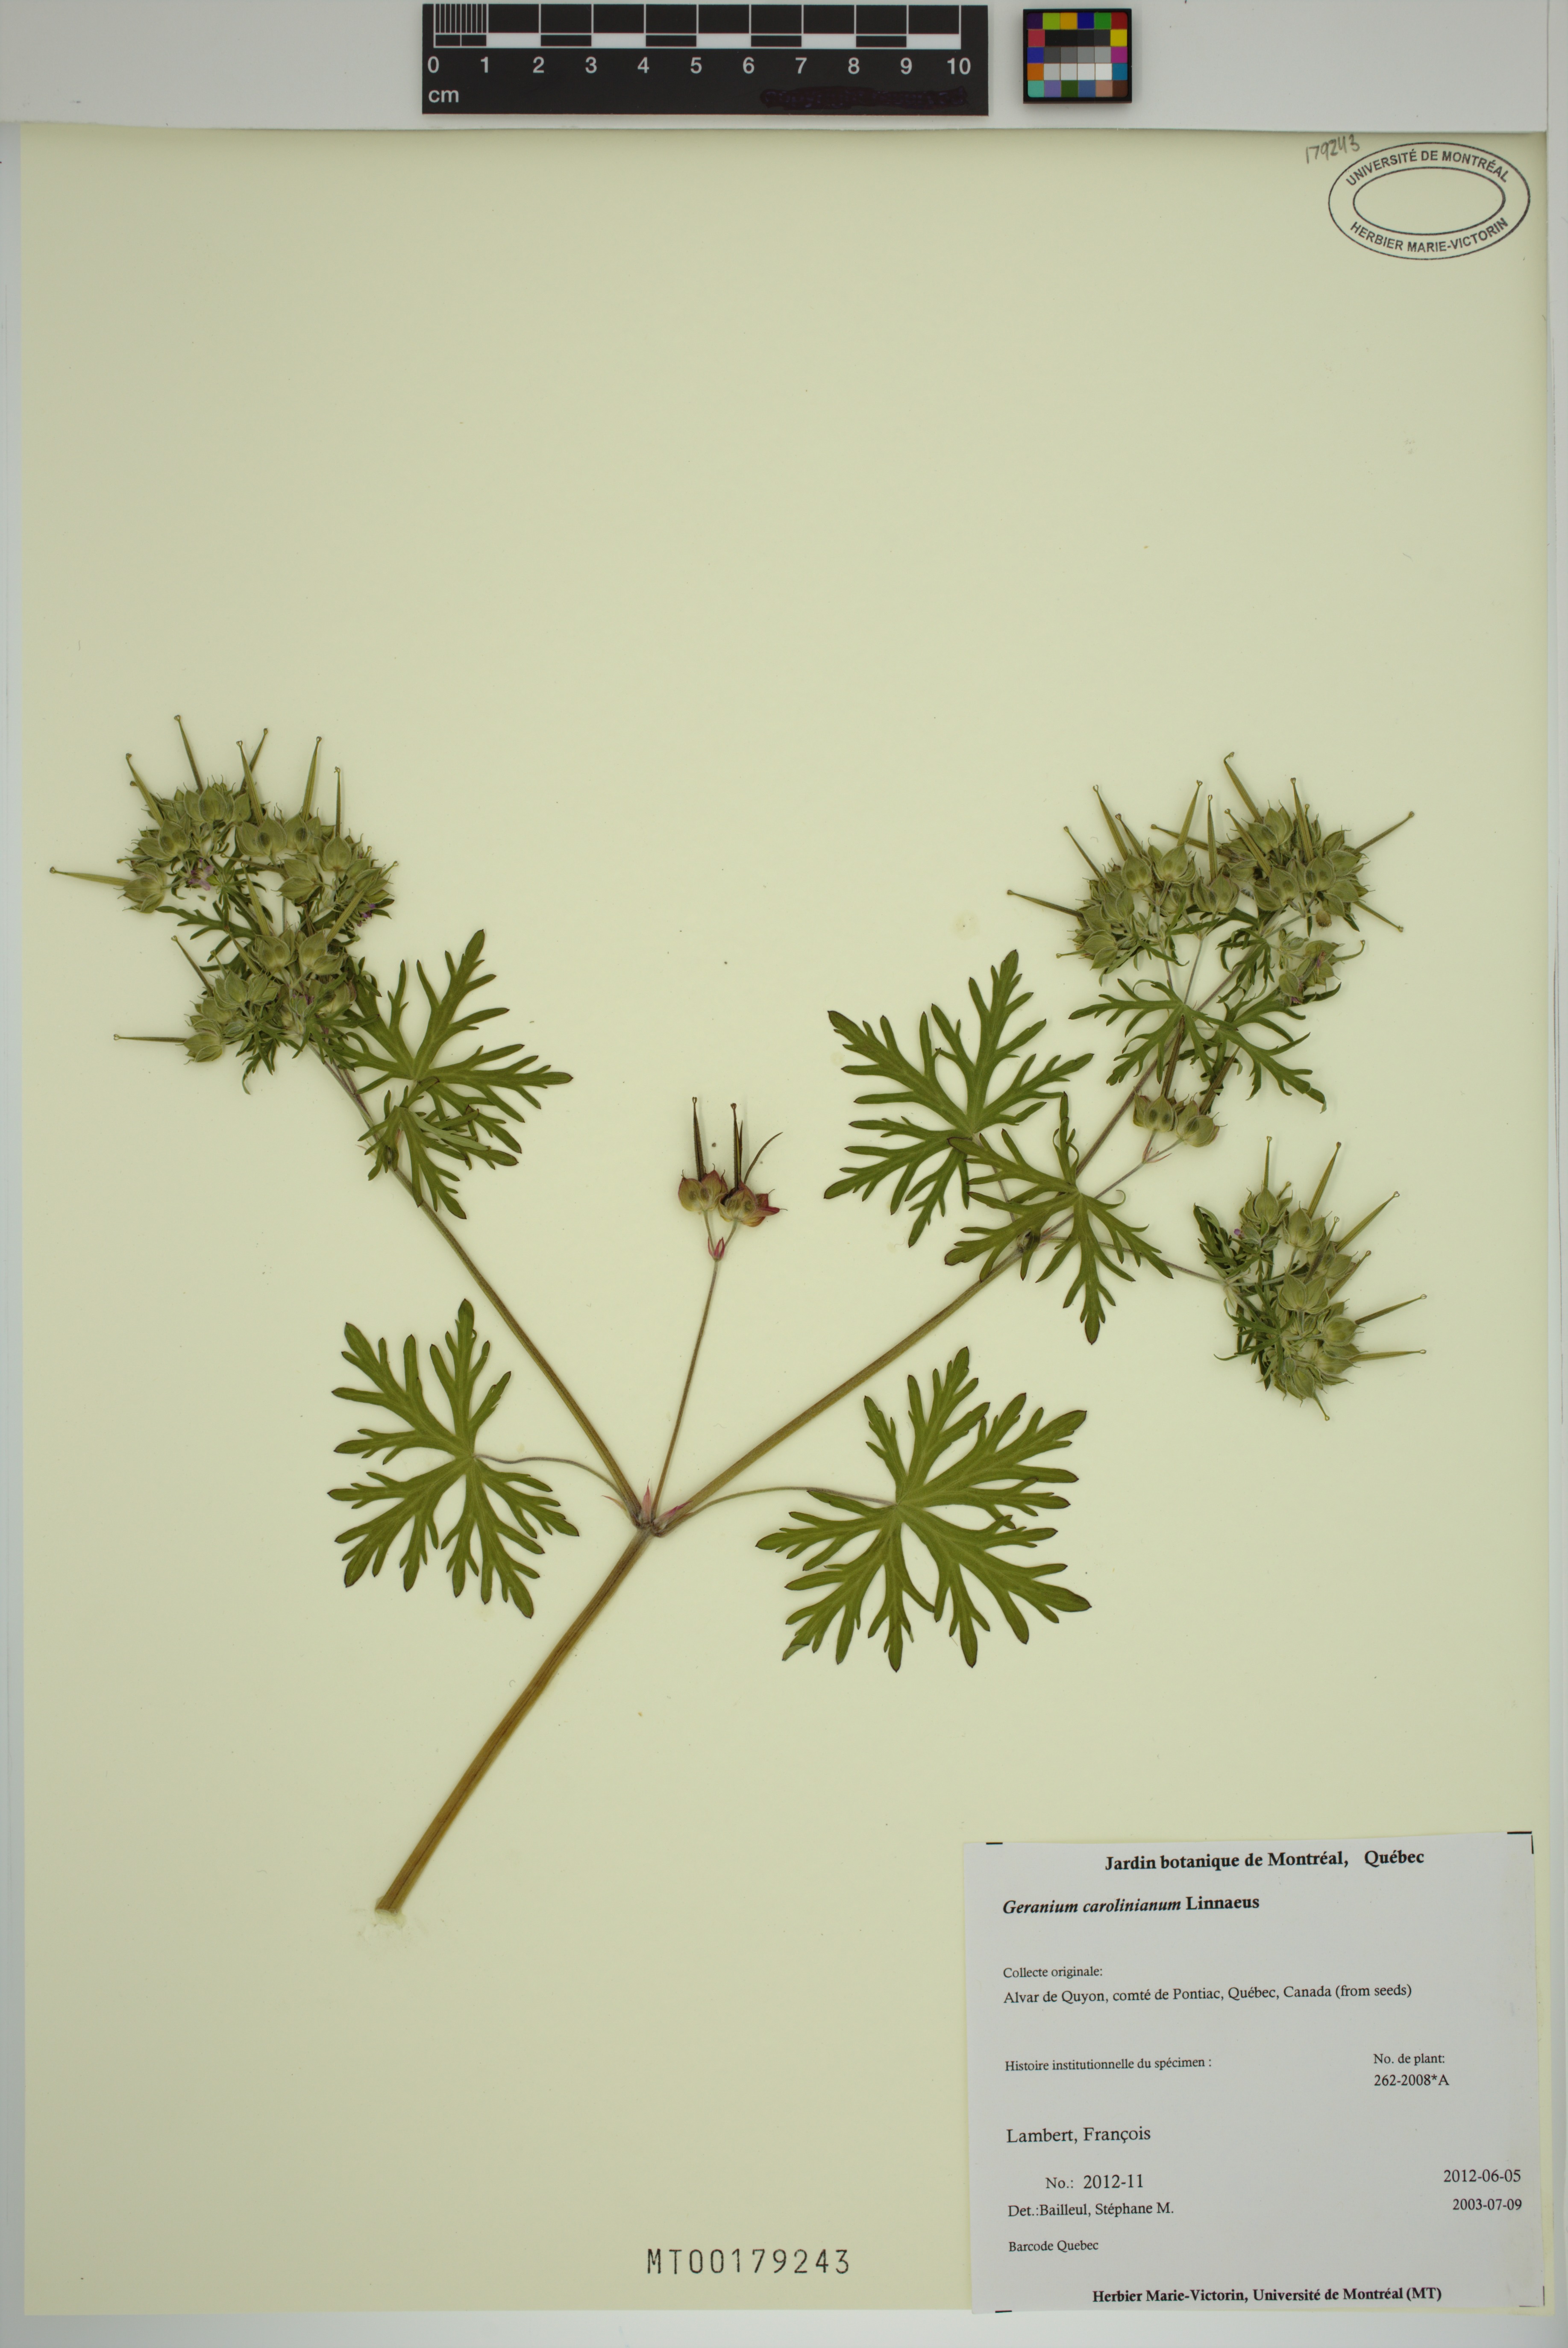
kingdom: Plantae
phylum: Tracheophyta
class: Magnoliopsida
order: Geraniales
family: Geraniaceae
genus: Geranium
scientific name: Geranium carolinianum
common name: Carolina crane's-bill
